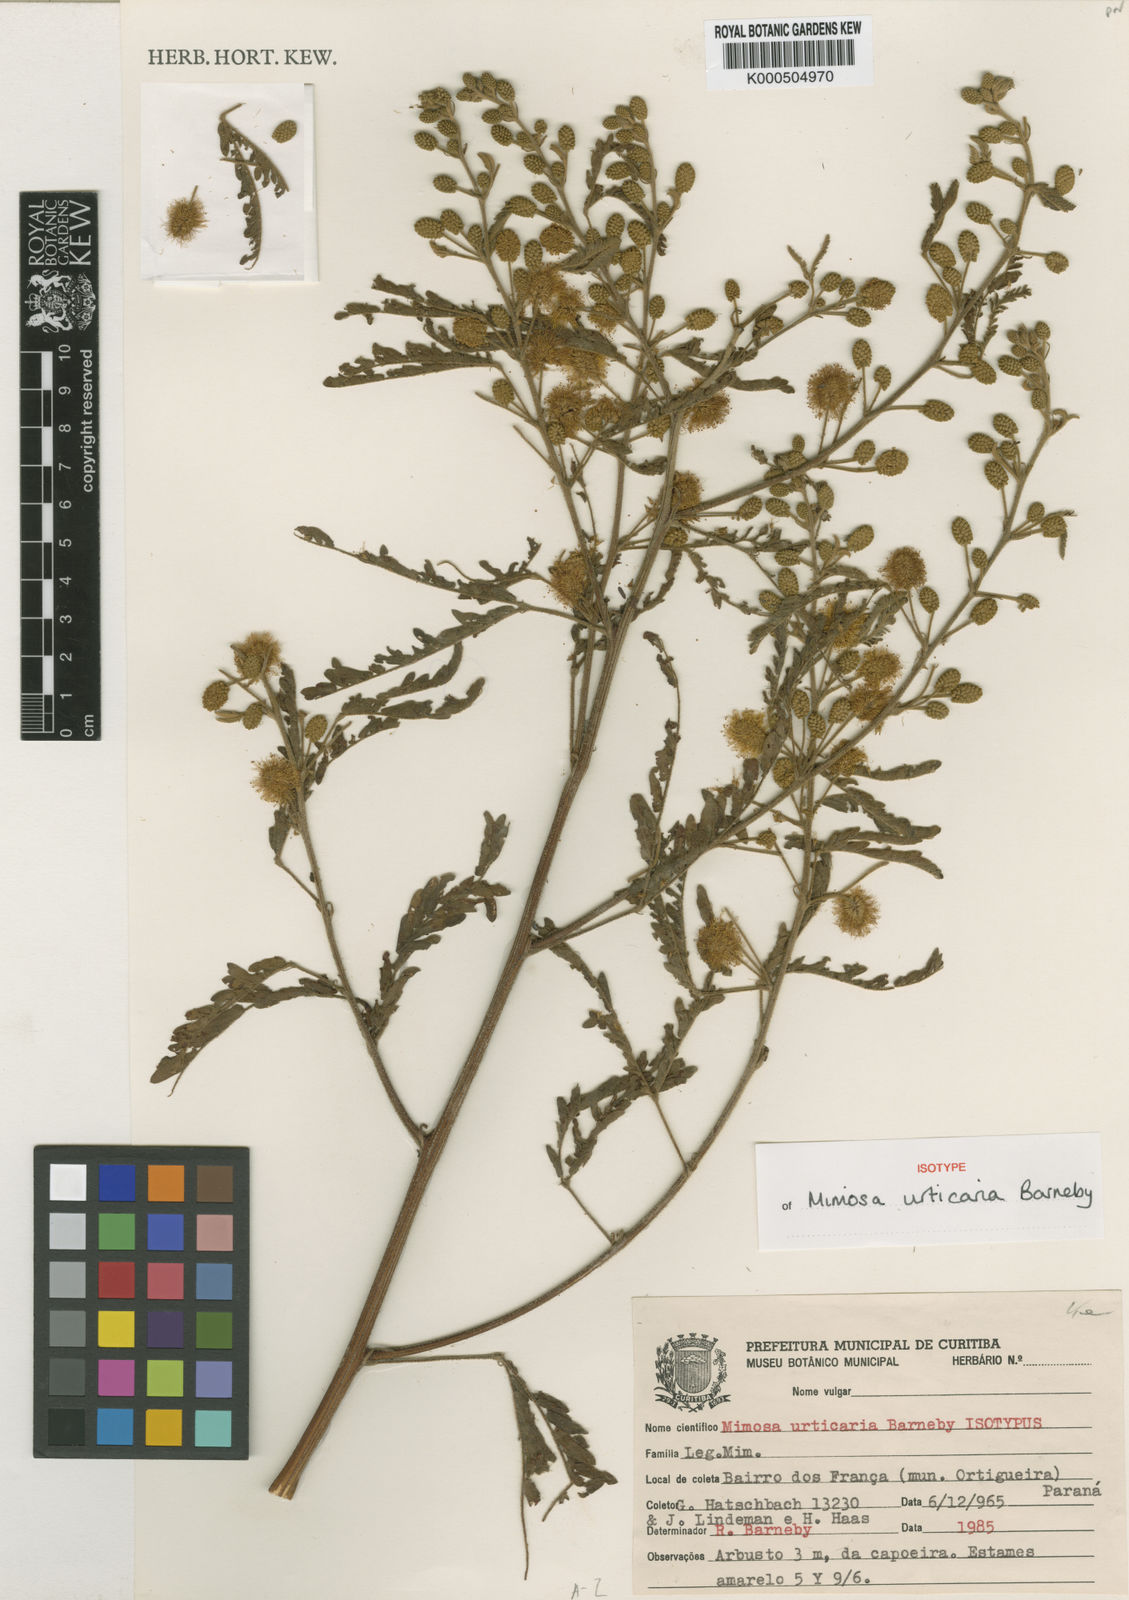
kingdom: Plantae
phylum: Tracheophyta
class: Magnoliopsida
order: Fabales
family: Fabaceae
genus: Mimosa
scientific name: Mimosa urticaria
